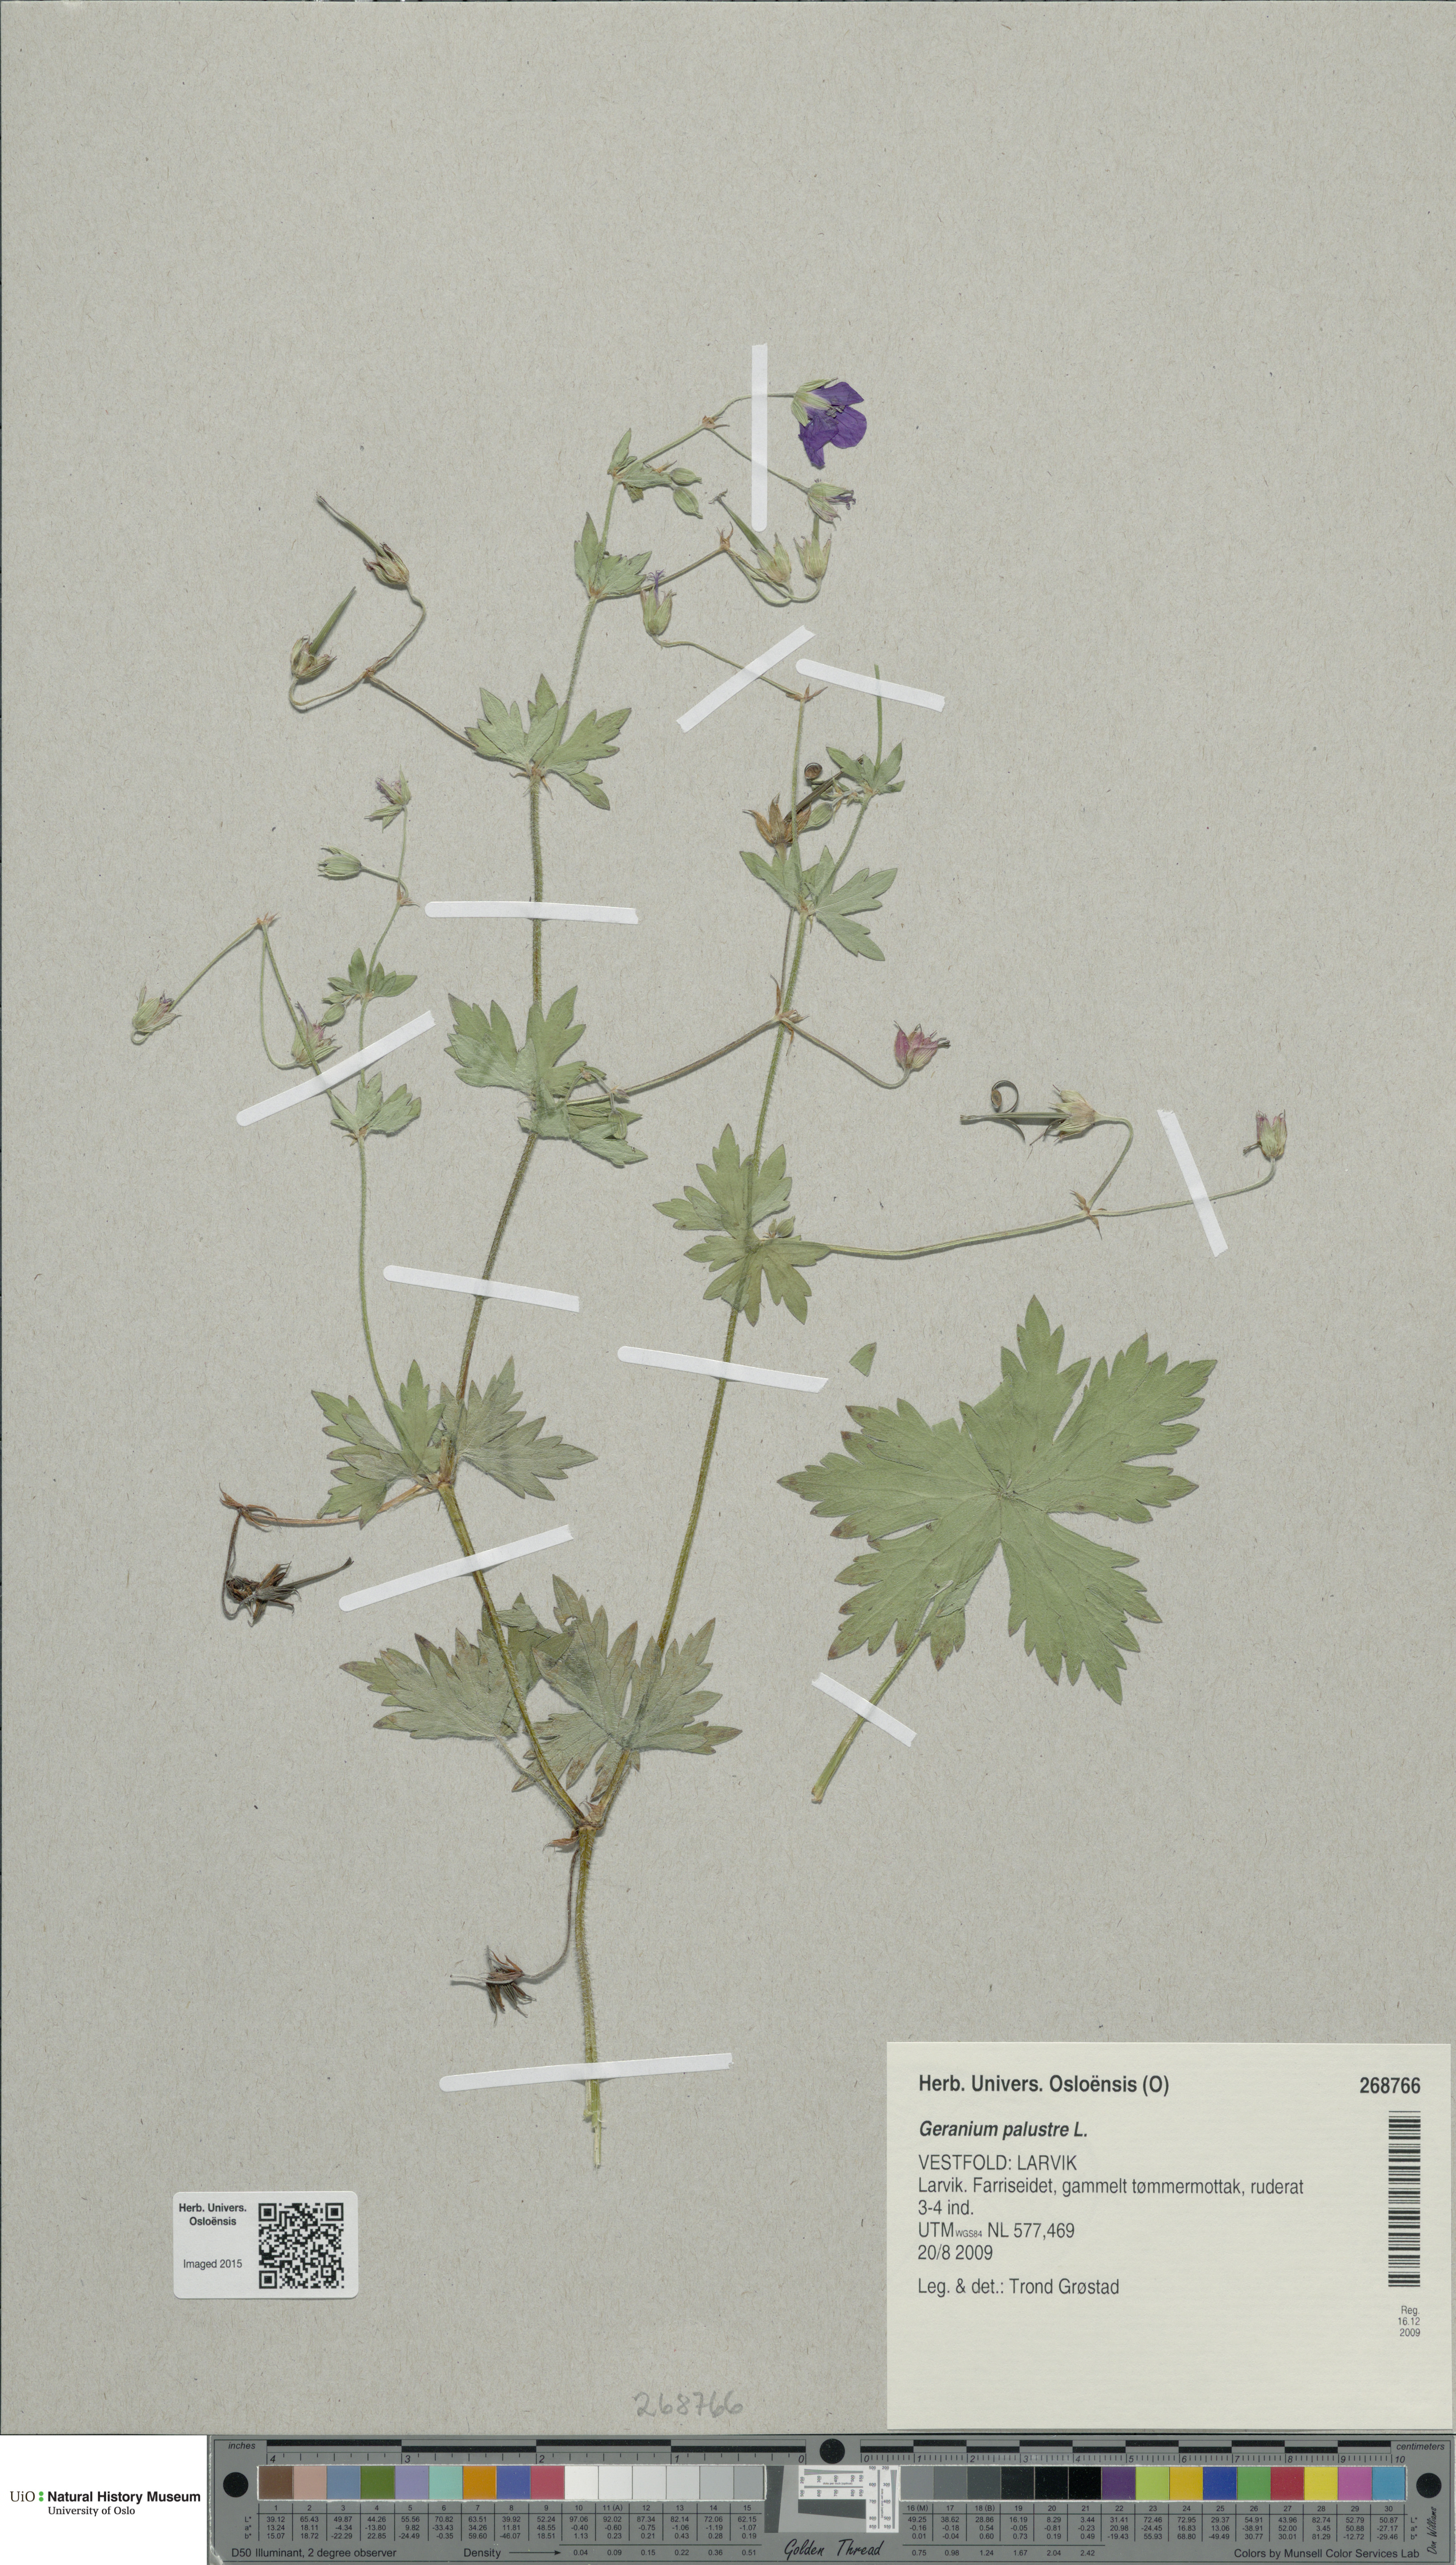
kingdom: Plantae
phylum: Tracheophyta
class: Magnoliopsida
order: Geraniales
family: Geraniaceae
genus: Geranium
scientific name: Geranium palustre
